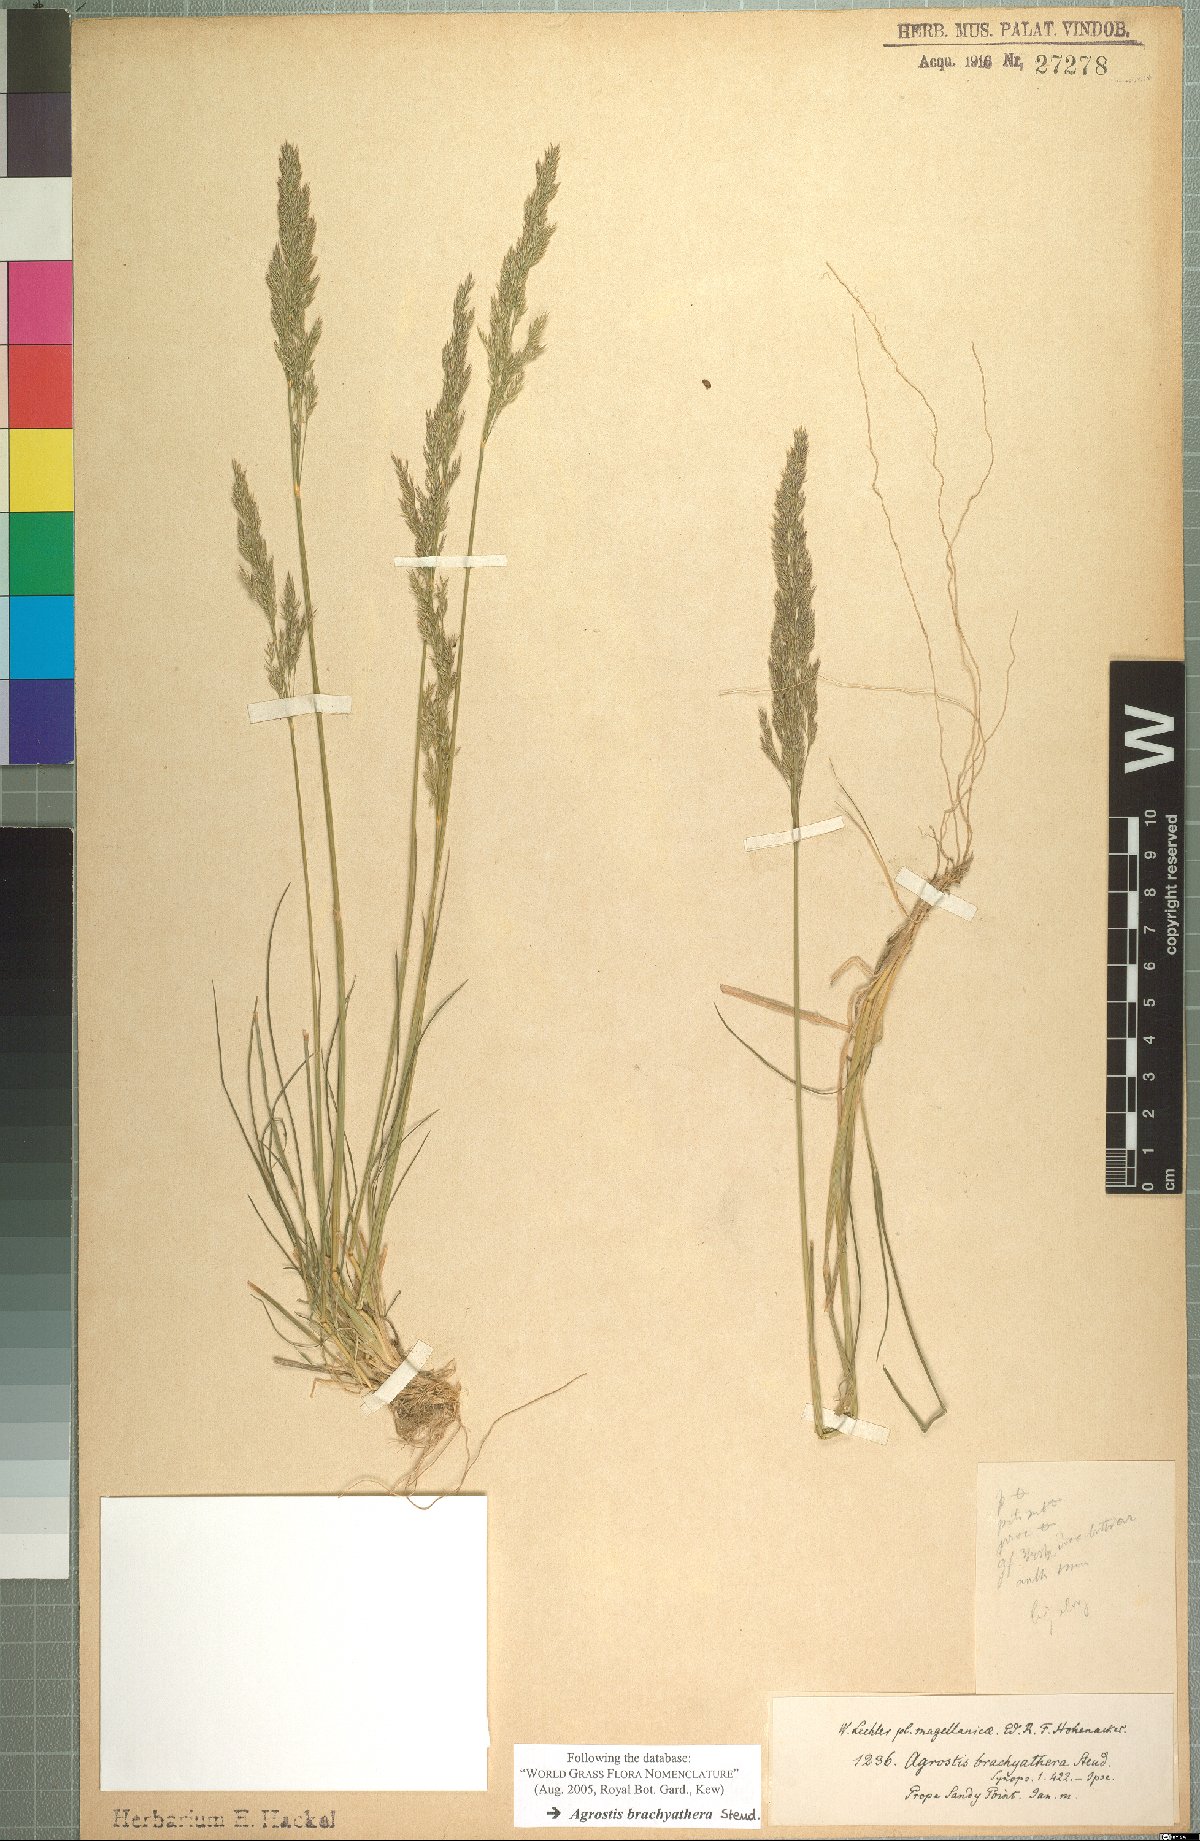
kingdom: Plantae
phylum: Tracheophyta
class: Liliopsida
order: Poales
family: Poaceae
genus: Agrostis
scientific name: Agrostis brachyathera
